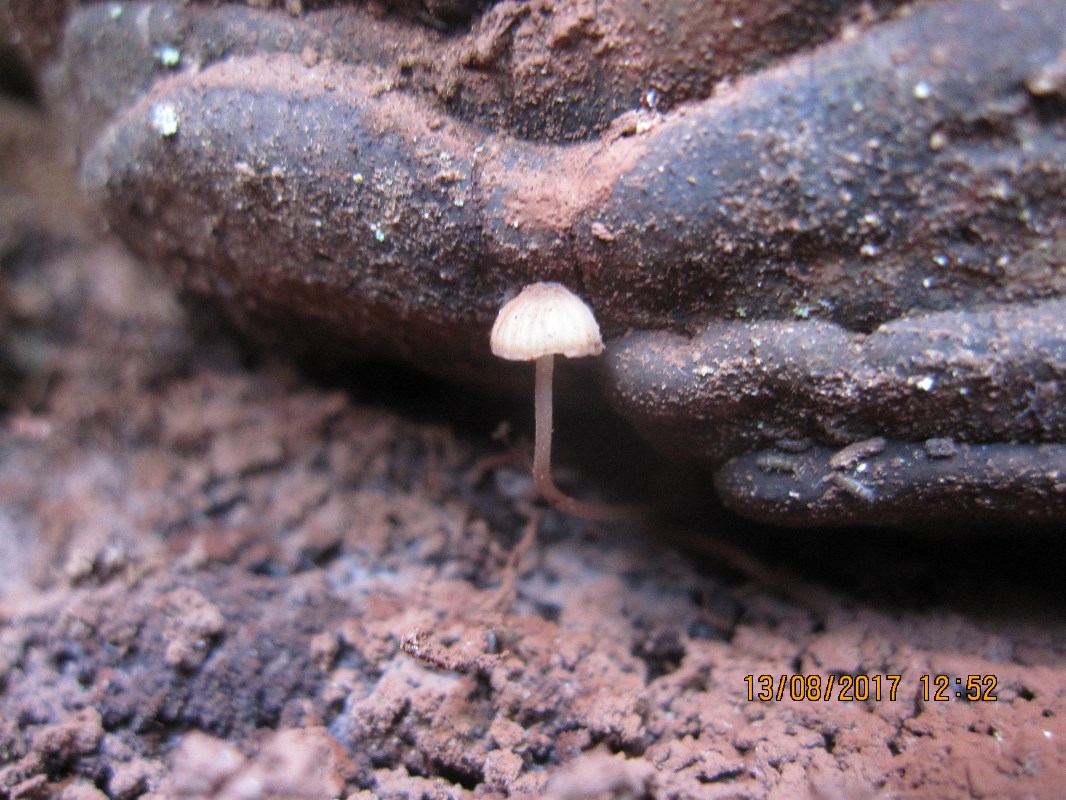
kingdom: Fungi
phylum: Basidiomycota
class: Agaricomycetes
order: Agaricales
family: Mycenaceae
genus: Mycena
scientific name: Mycena sanguinolenta
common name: rødmælket huesvamp
